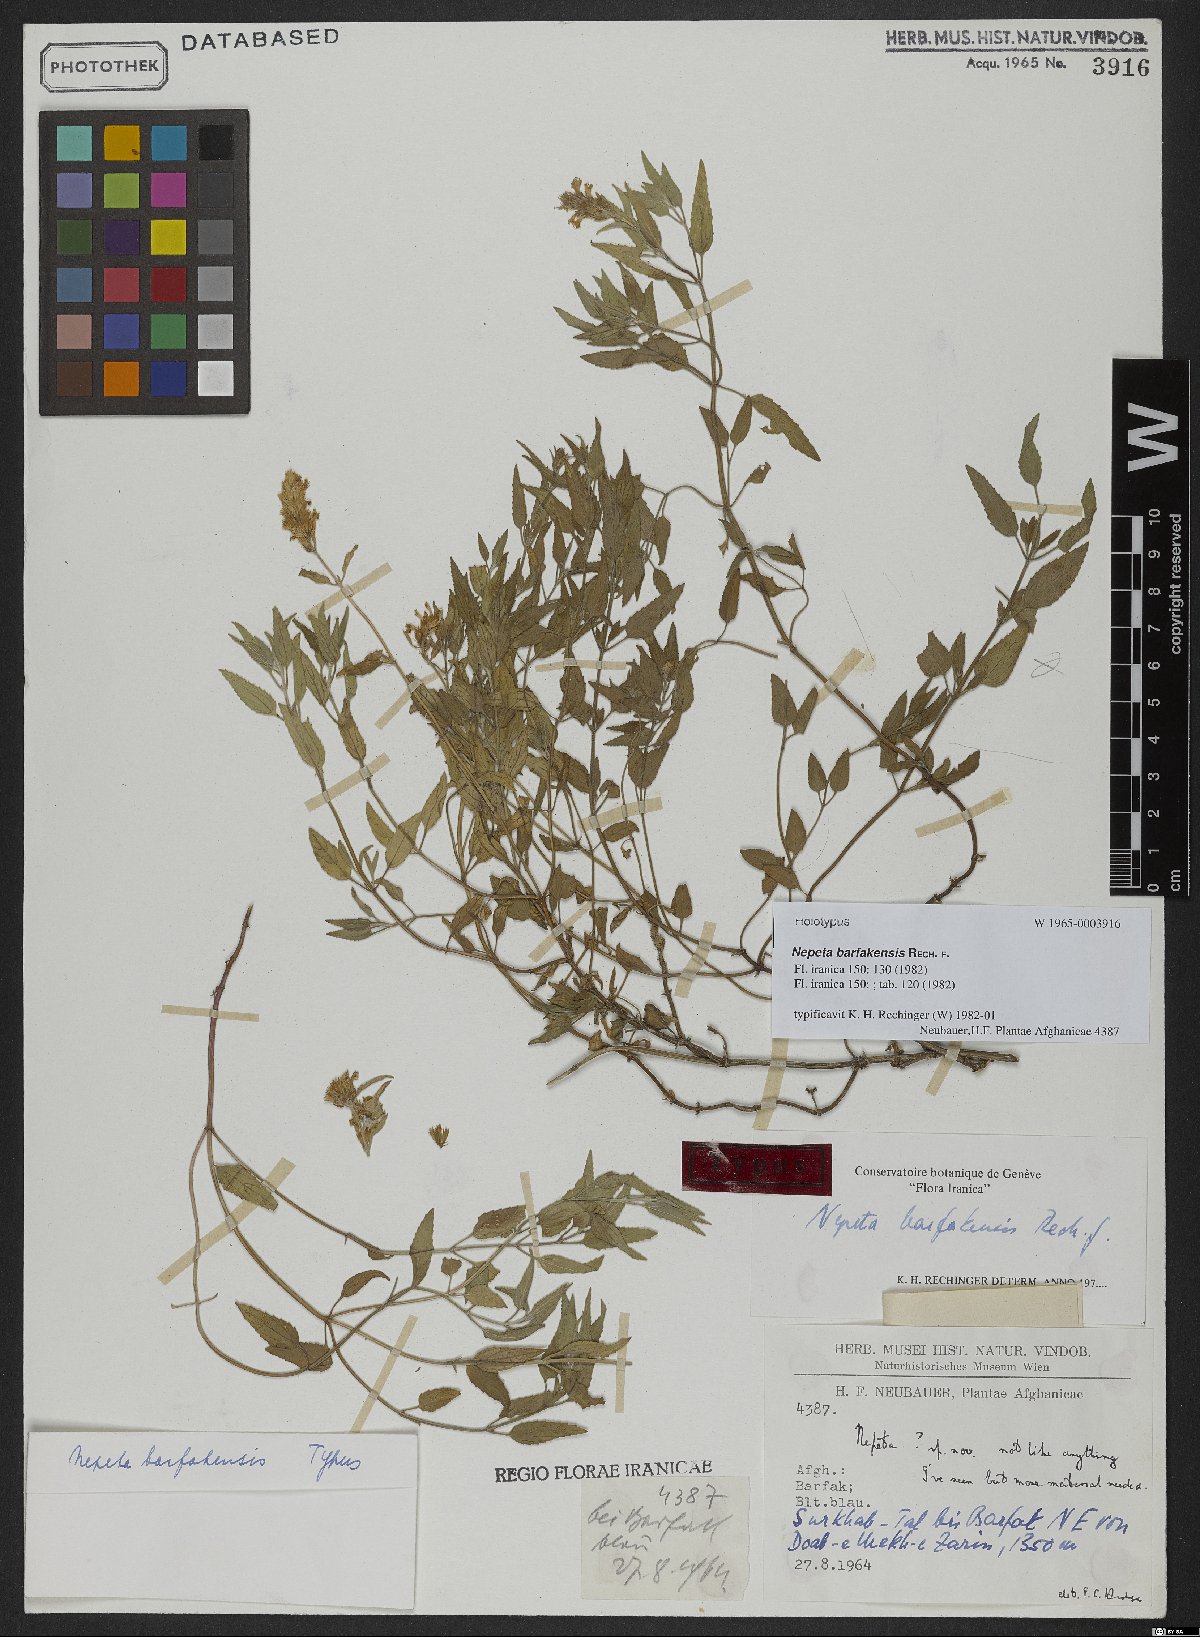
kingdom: Plantae
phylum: Tracheophyta
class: Magnoliopsida
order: Lamiales
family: Lamiaceae
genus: Nepeta
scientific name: Nepeta barfakensis
